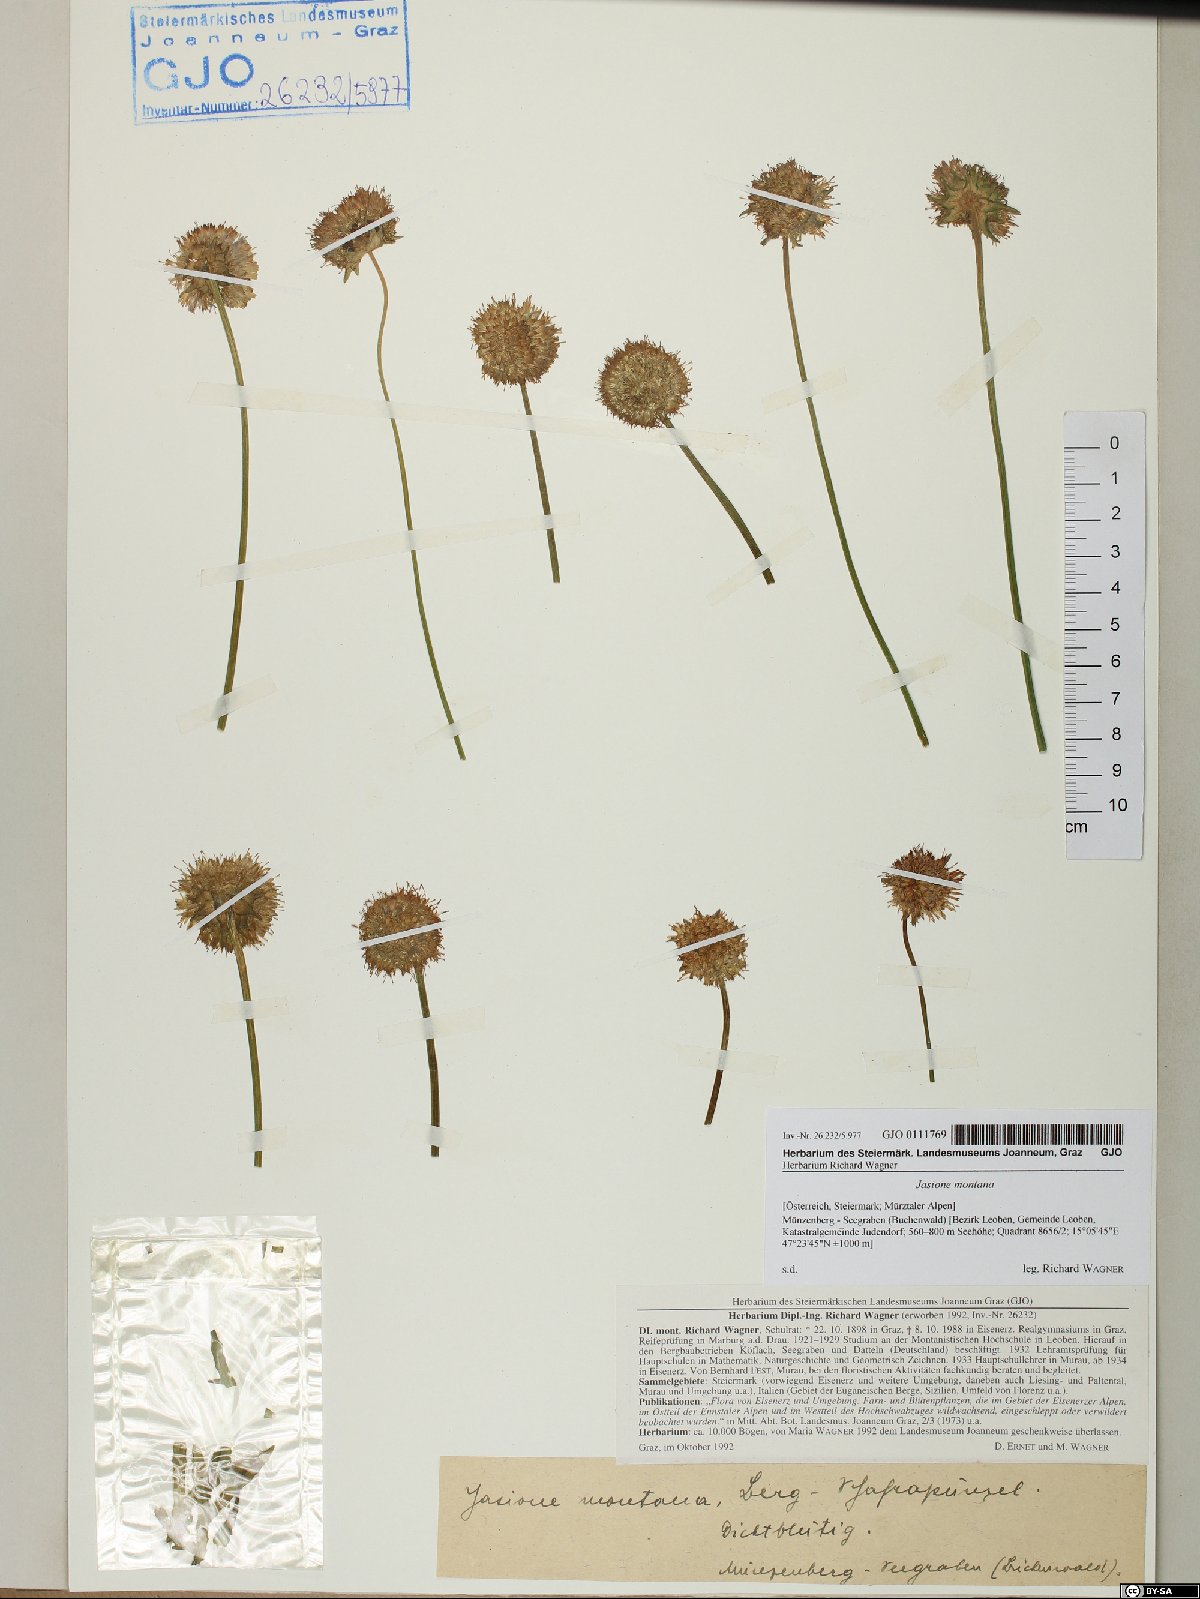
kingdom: Plantae
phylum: Tracheophyta
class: Magnoliopsida
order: Asterales
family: Campanulaceae
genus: Jasione
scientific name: Jasione montana
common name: Sheep's-bit
